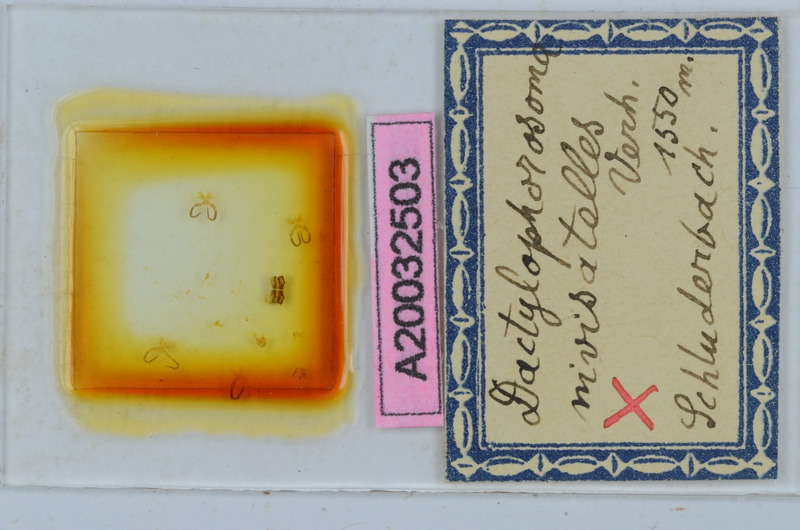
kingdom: Animalia
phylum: Arthropoda
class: Diplopoda
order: Chordeumatida
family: Craspedosomatidae
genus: Dactylophorosoma
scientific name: Dactylophorosoma nivisatelles
